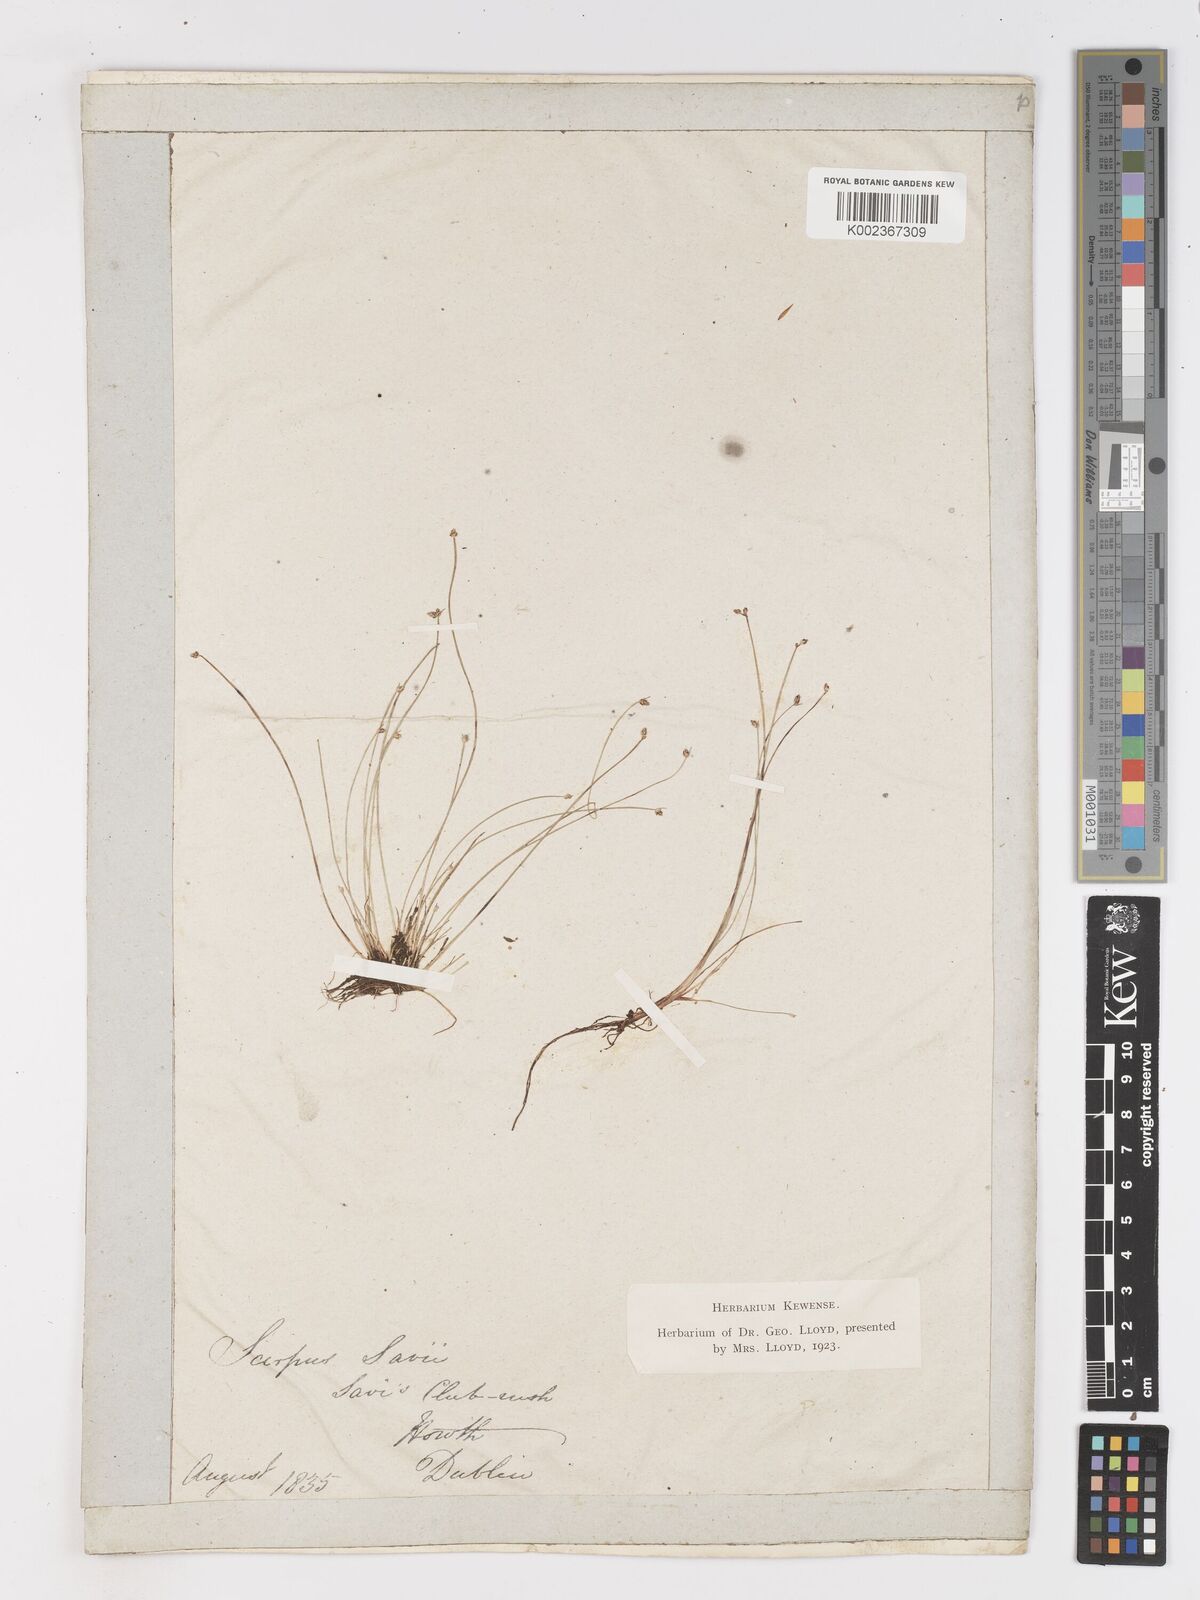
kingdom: Plantae
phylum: Tracheophyta
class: Liliopsida
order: Poales
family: Cyperaceae
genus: Isolepis
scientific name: Isolepis cernua
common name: Slender club-rush
